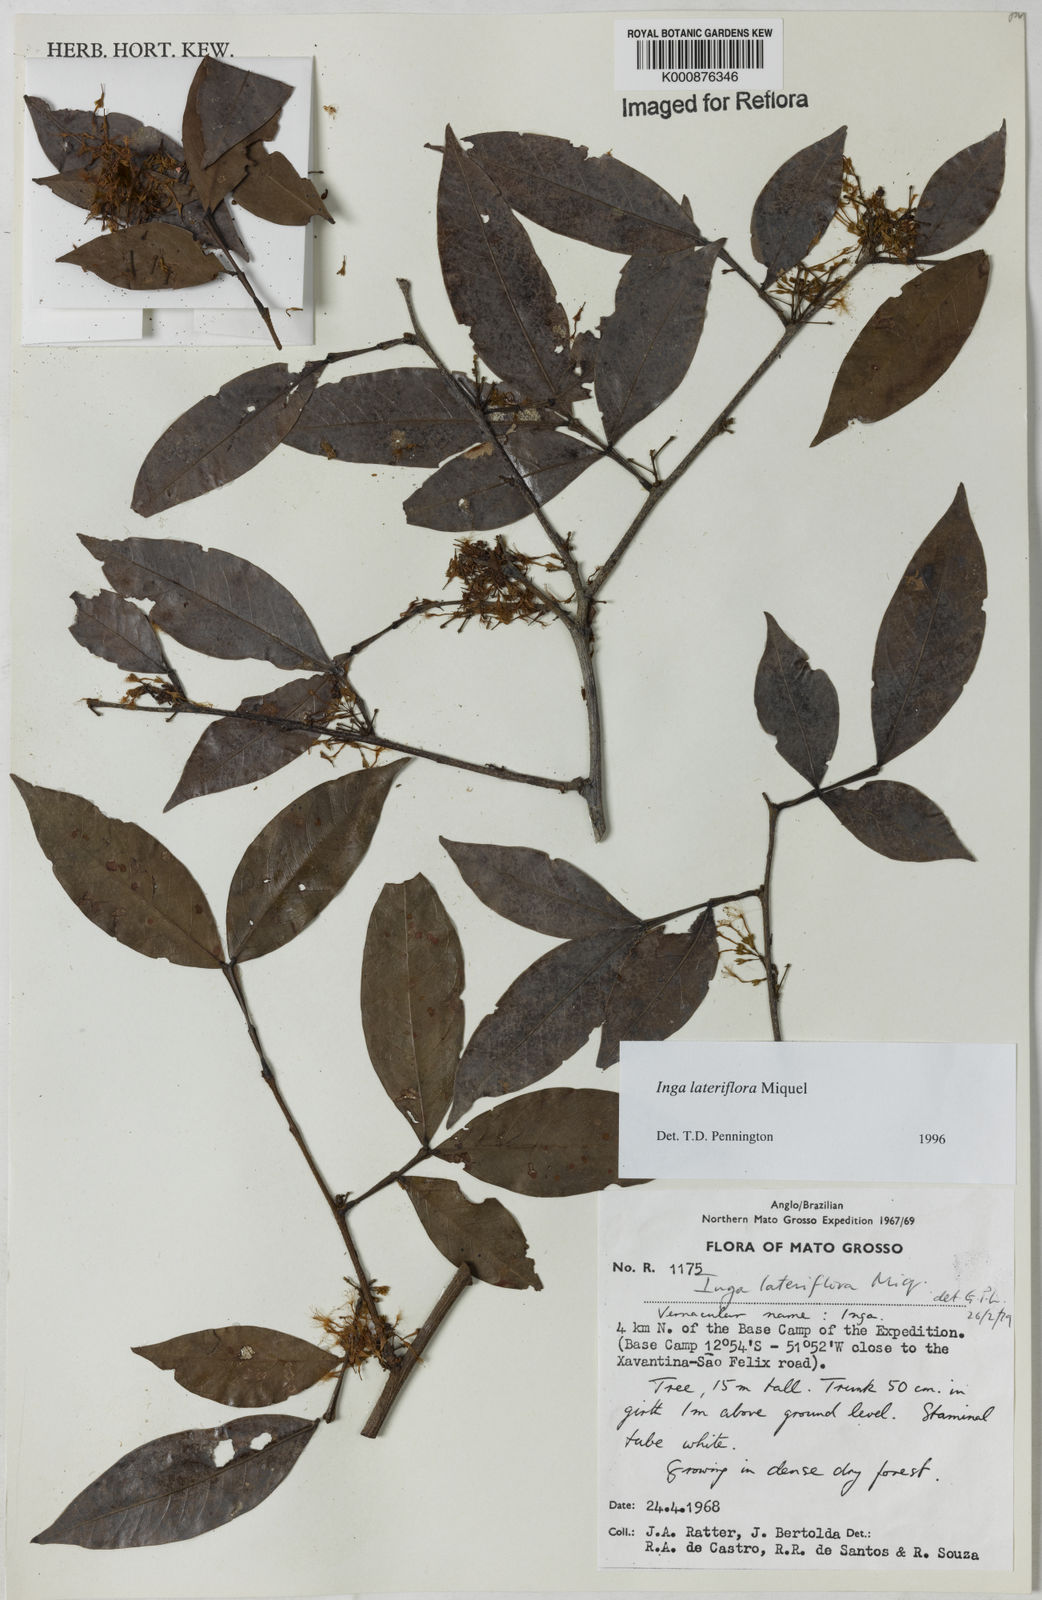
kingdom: Plantae
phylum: Tracheophyta
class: Magnoliopsida
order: Fabales
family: Fabaceae
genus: Inga
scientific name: Inga lateriflora
